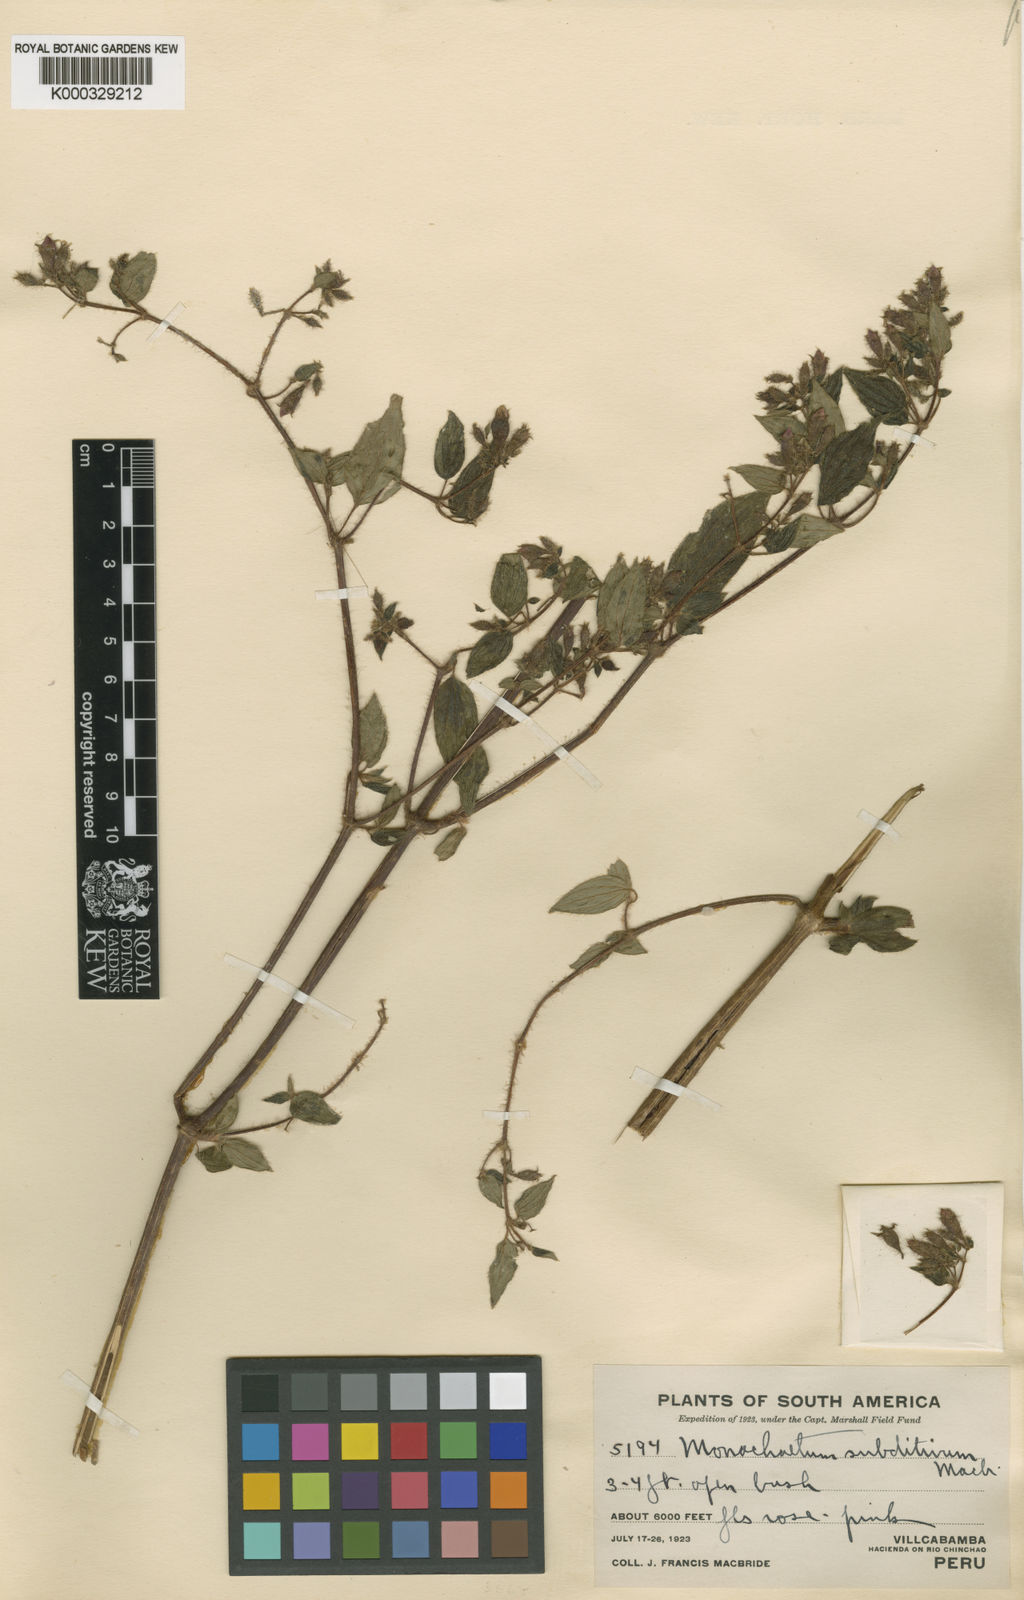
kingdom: Plantae
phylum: Tracheophyta
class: Magnoliopsida
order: Myrtales
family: Melastomataceae
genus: Monochaetum
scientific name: Monochaetum subditivum
